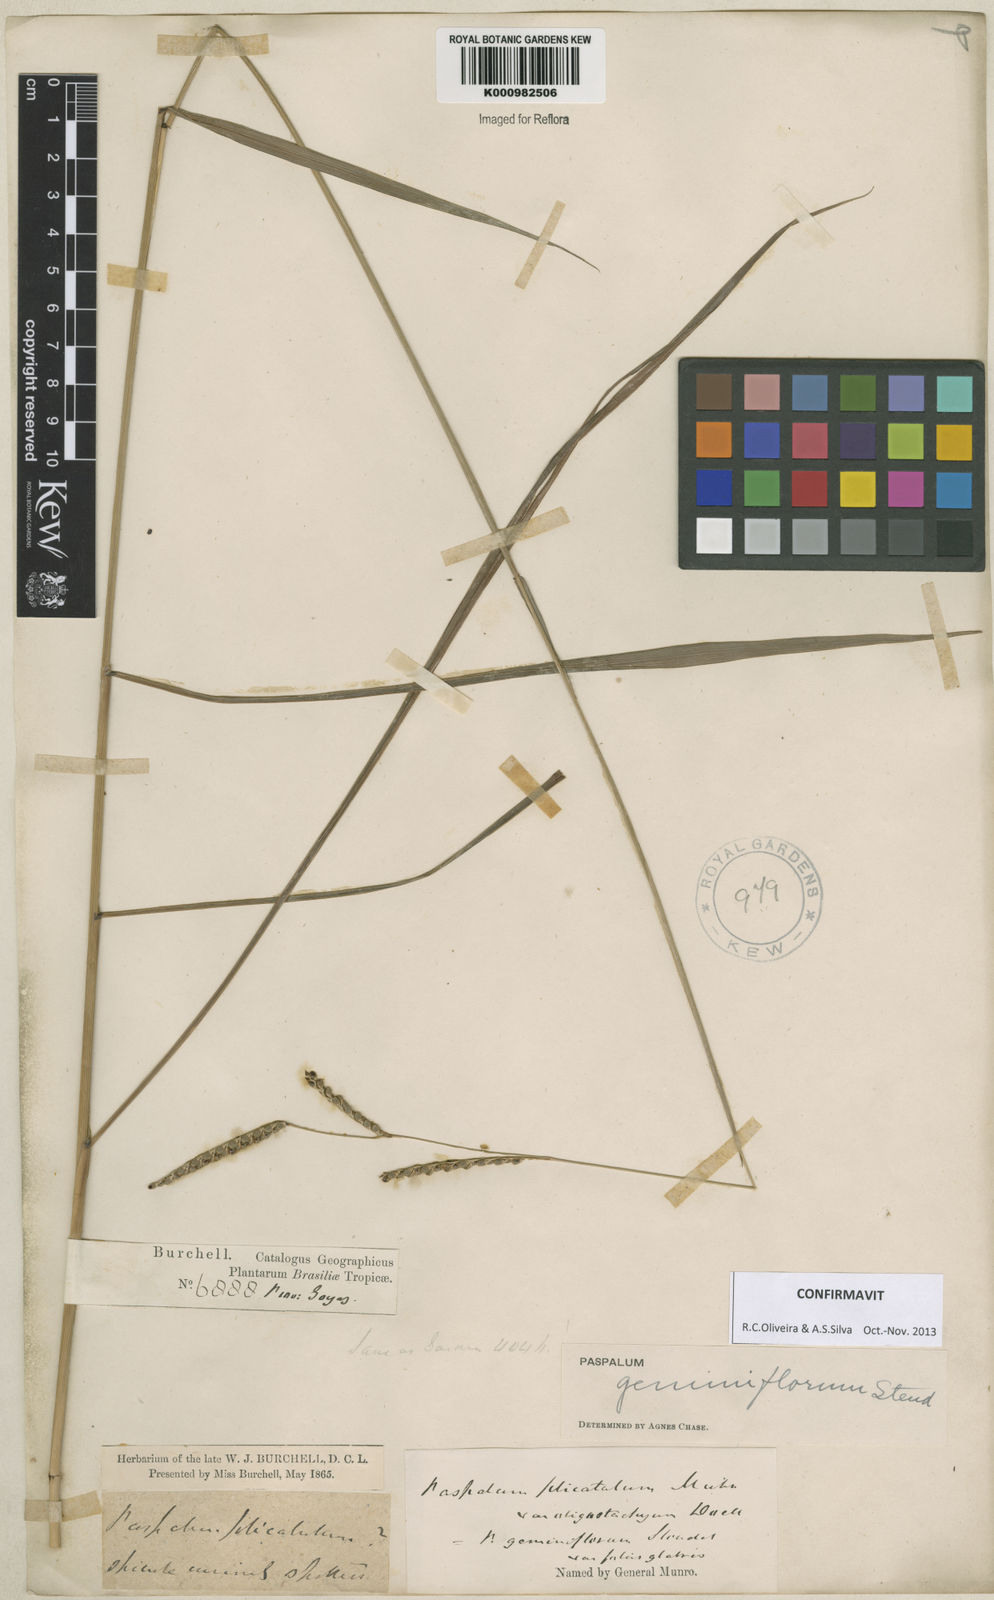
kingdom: Plantae
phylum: Tracheophyta
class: Liliopsida
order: Poales
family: Poaceae
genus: Paspalum
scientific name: Paspalum geminiflorum
